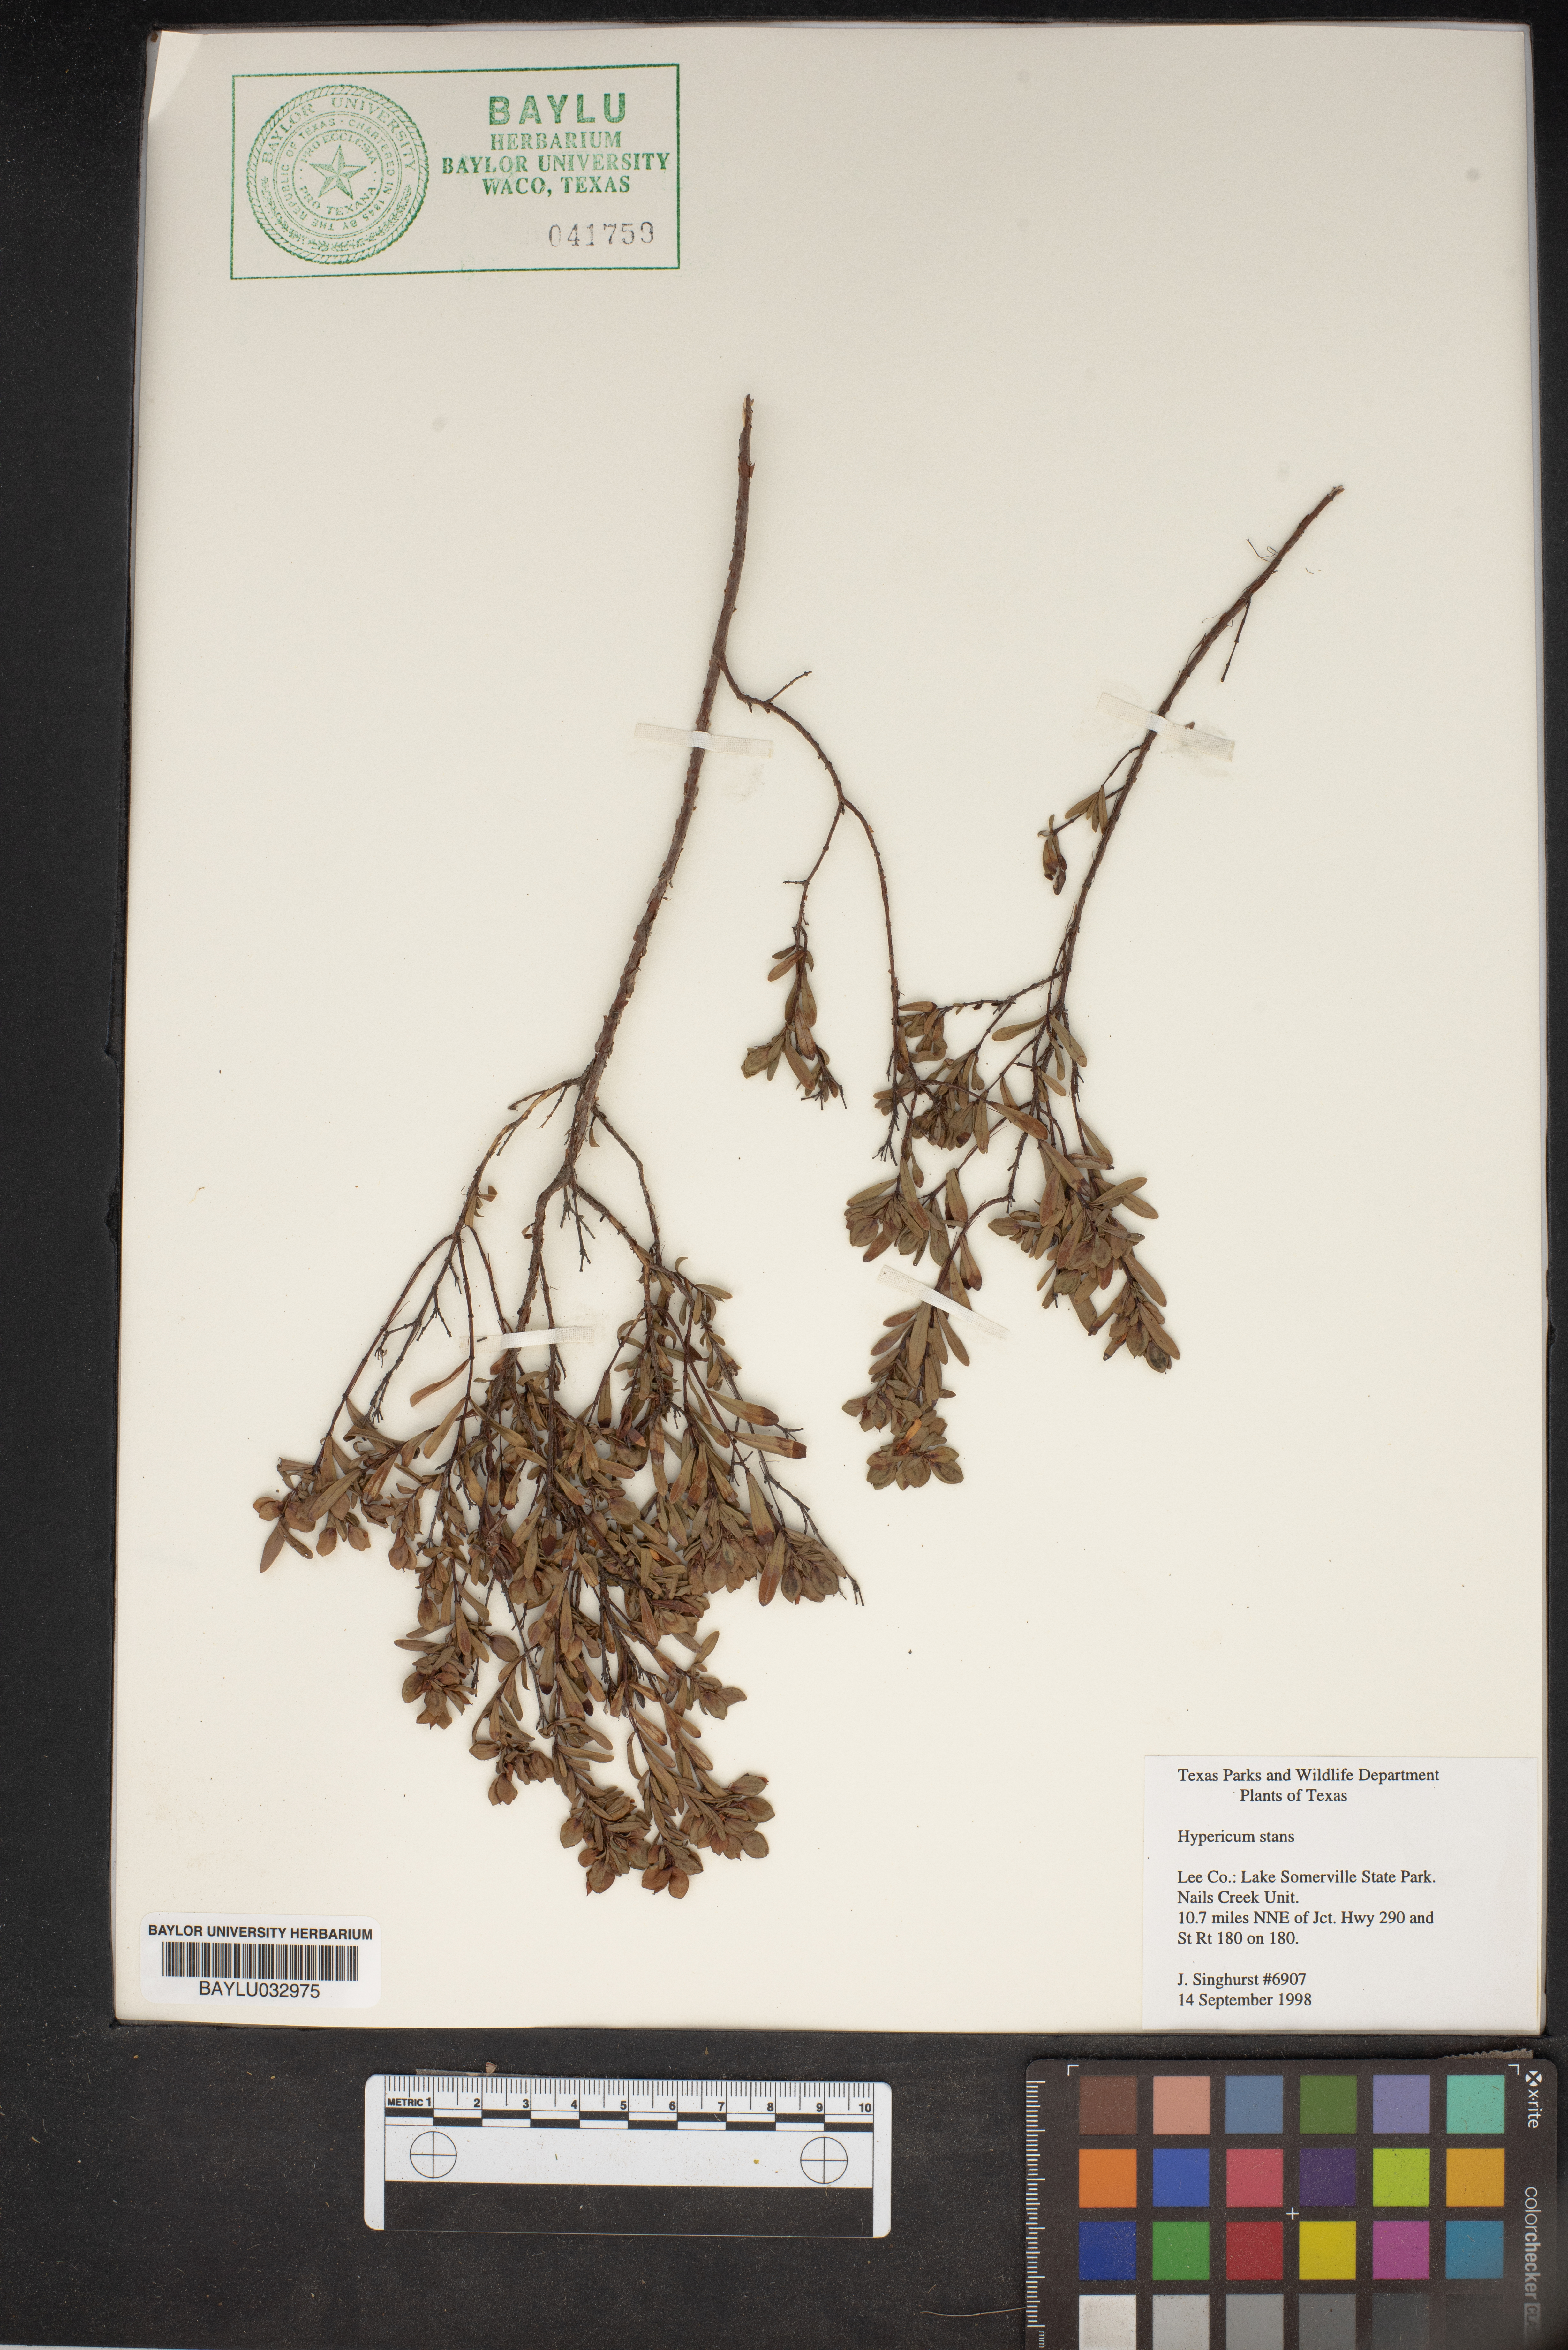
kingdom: Plantae
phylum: Tracheophyta
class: Magnoliopsida
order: Malpighiales
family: Hypericaceae
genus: Hypericum
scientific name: Hypericum crux-andreae
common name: St.-peter's-wort
